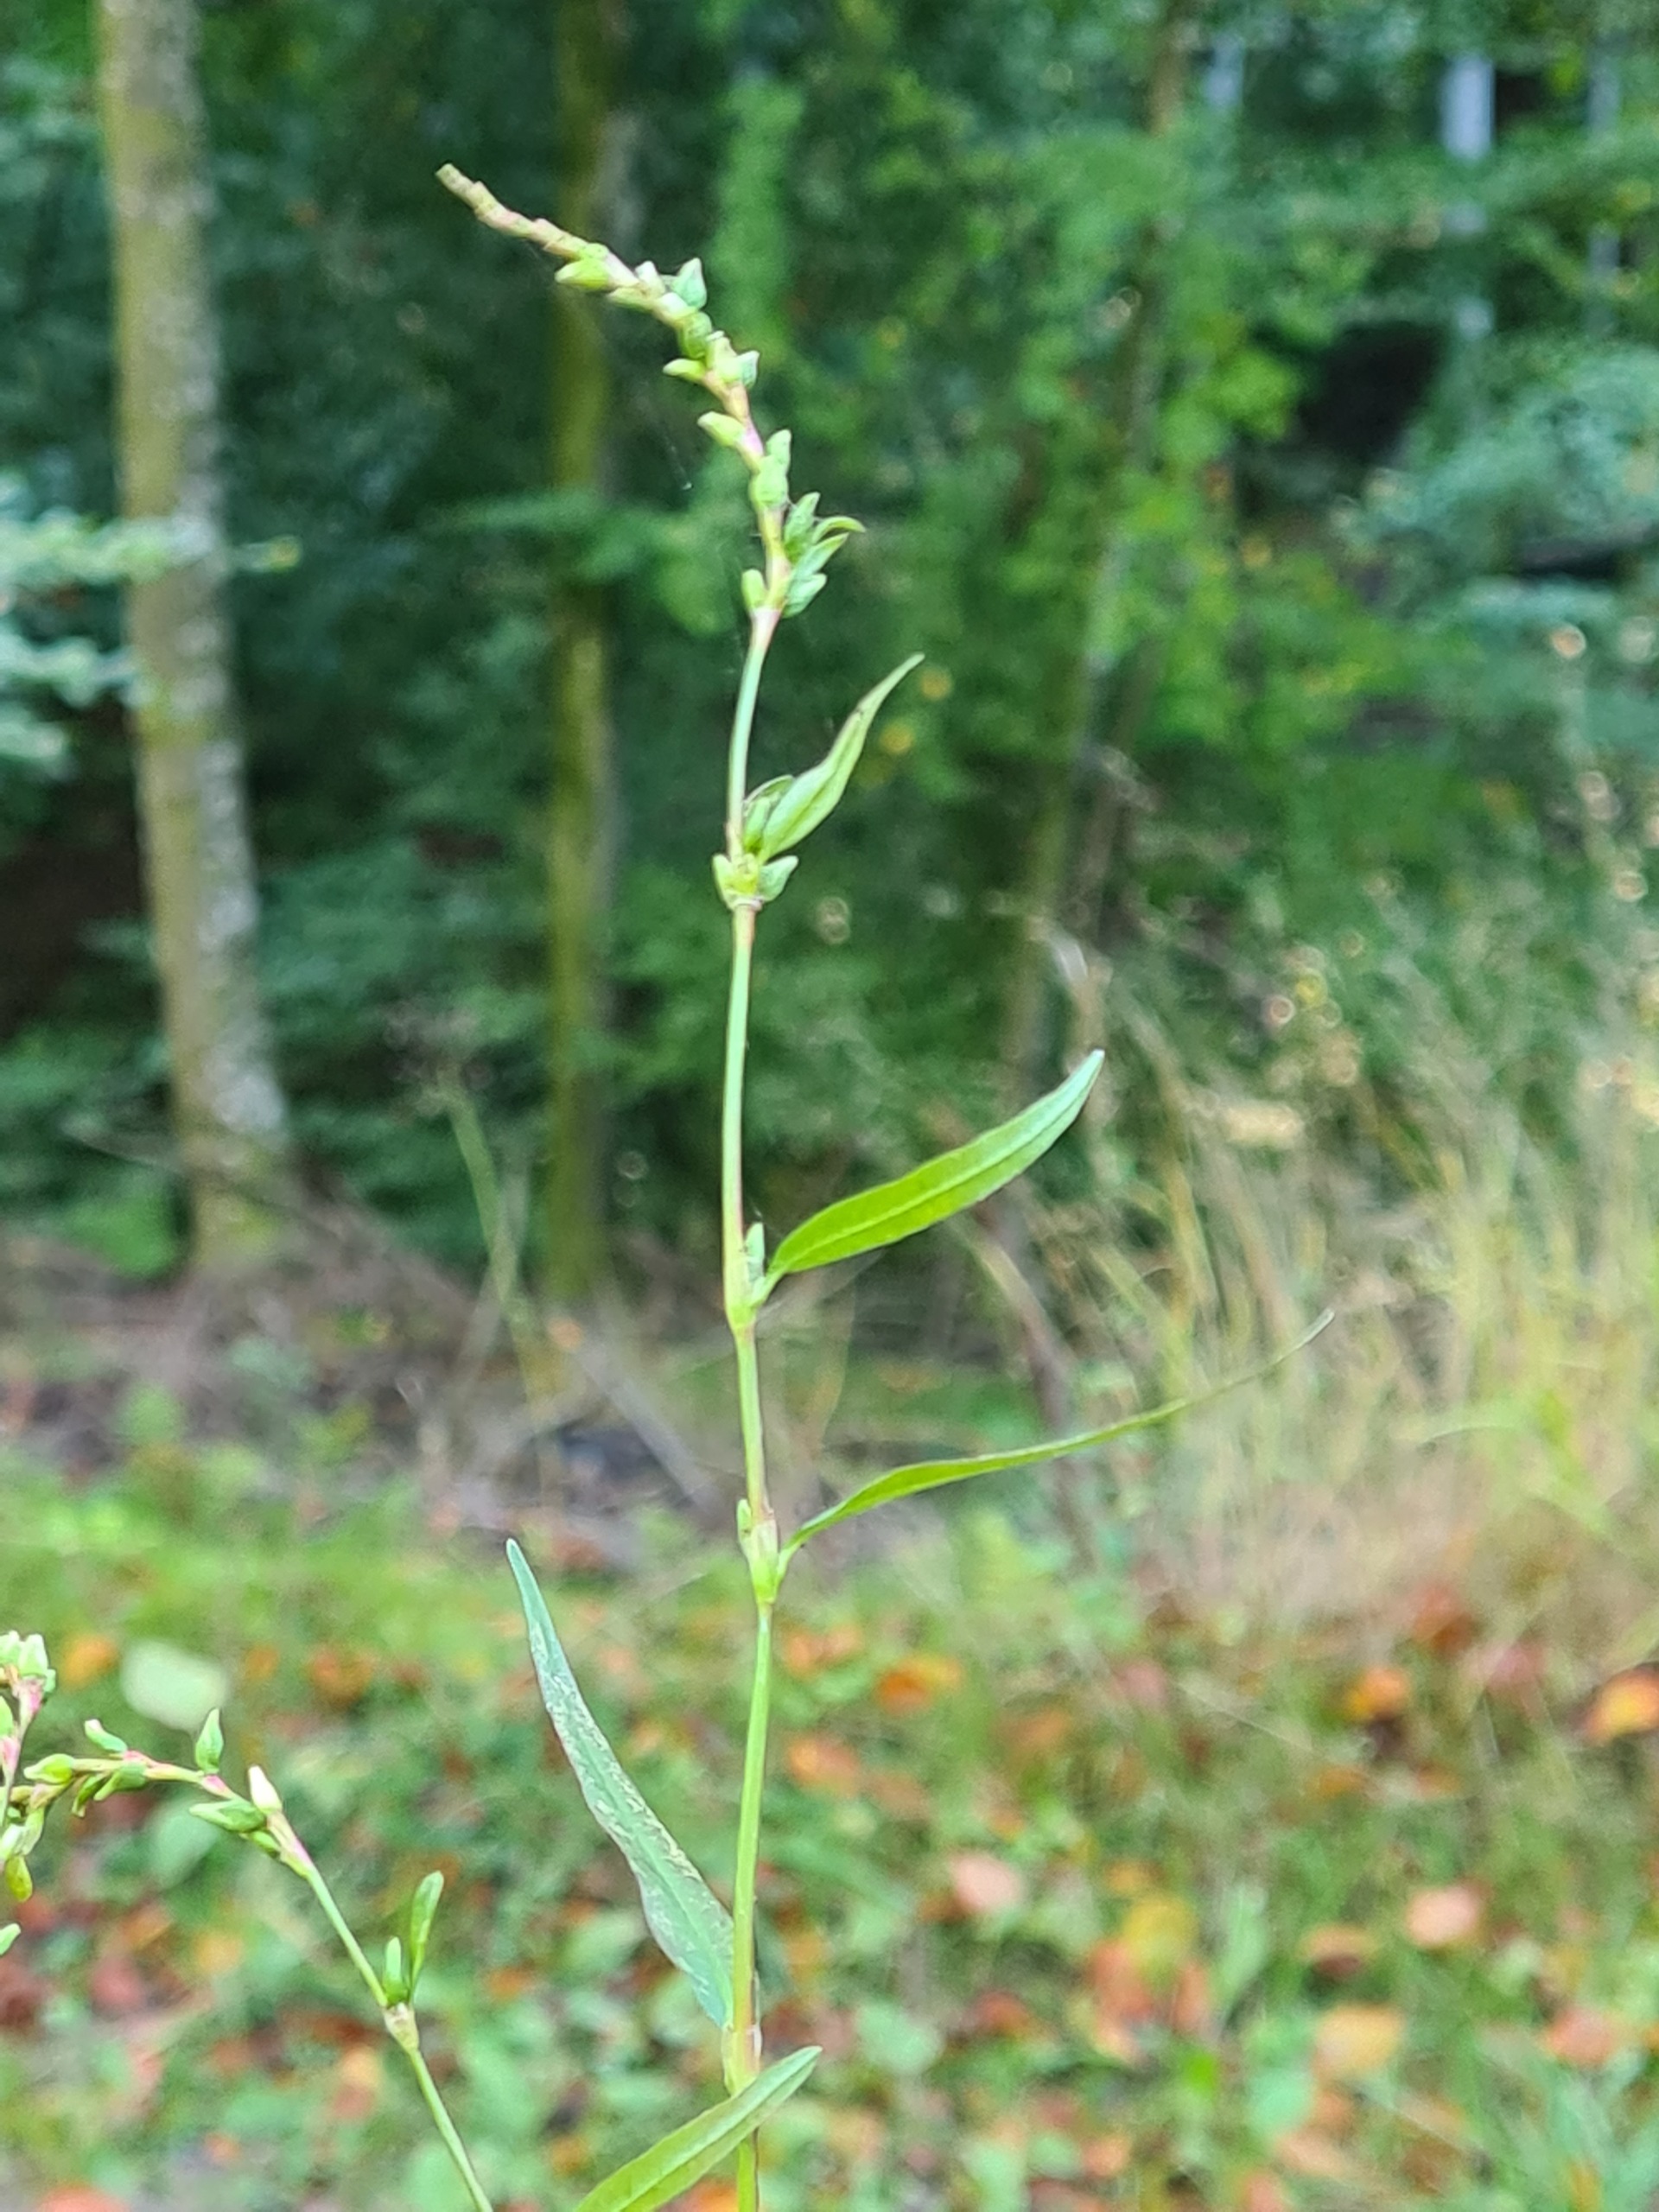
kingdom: Plantae
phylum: Tracheophyta
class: Magnoliopsida
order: Caryophyllales
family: Polygonaceae
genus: Persicaria
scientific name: Persicaria hydropiper
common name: Bidende pileurt
